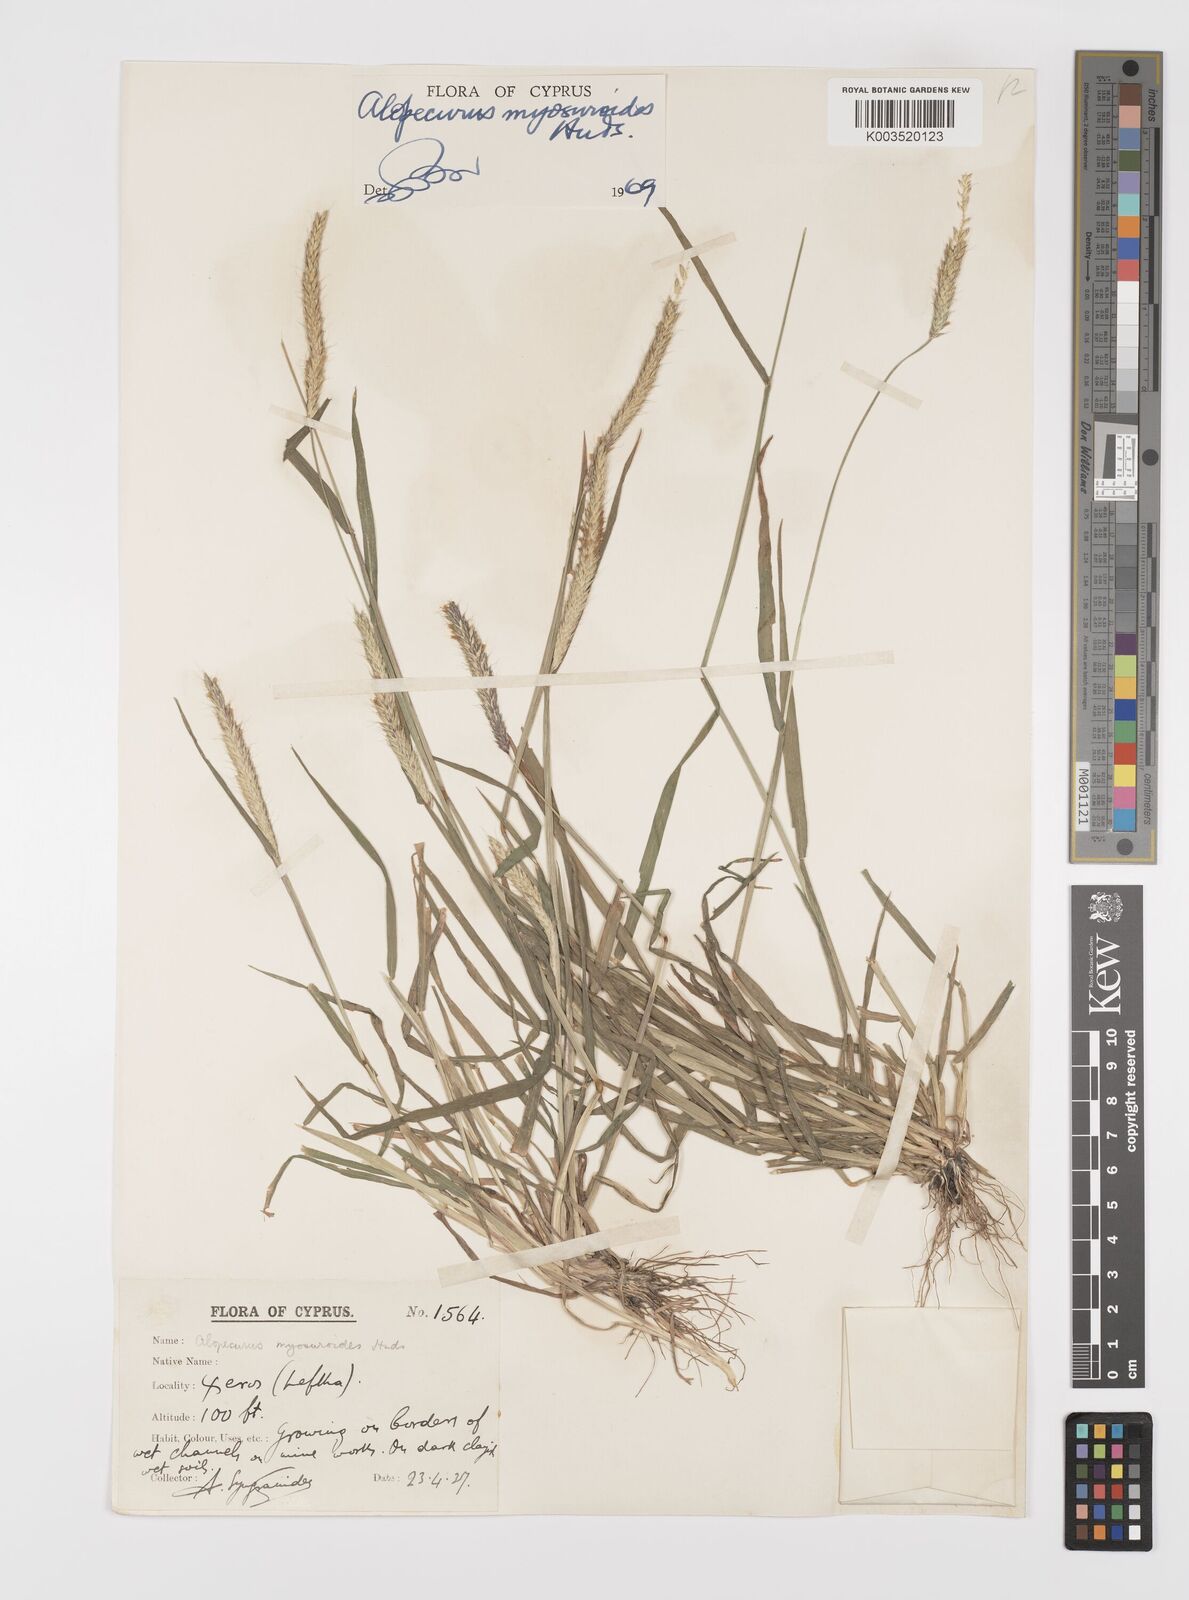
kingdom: Plantae
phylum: Tracheophyta
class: Liliopsida
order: Poales
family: Poaceae
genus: Alopecurus
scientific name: Alopecurus myosuroides
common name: Black-grass
